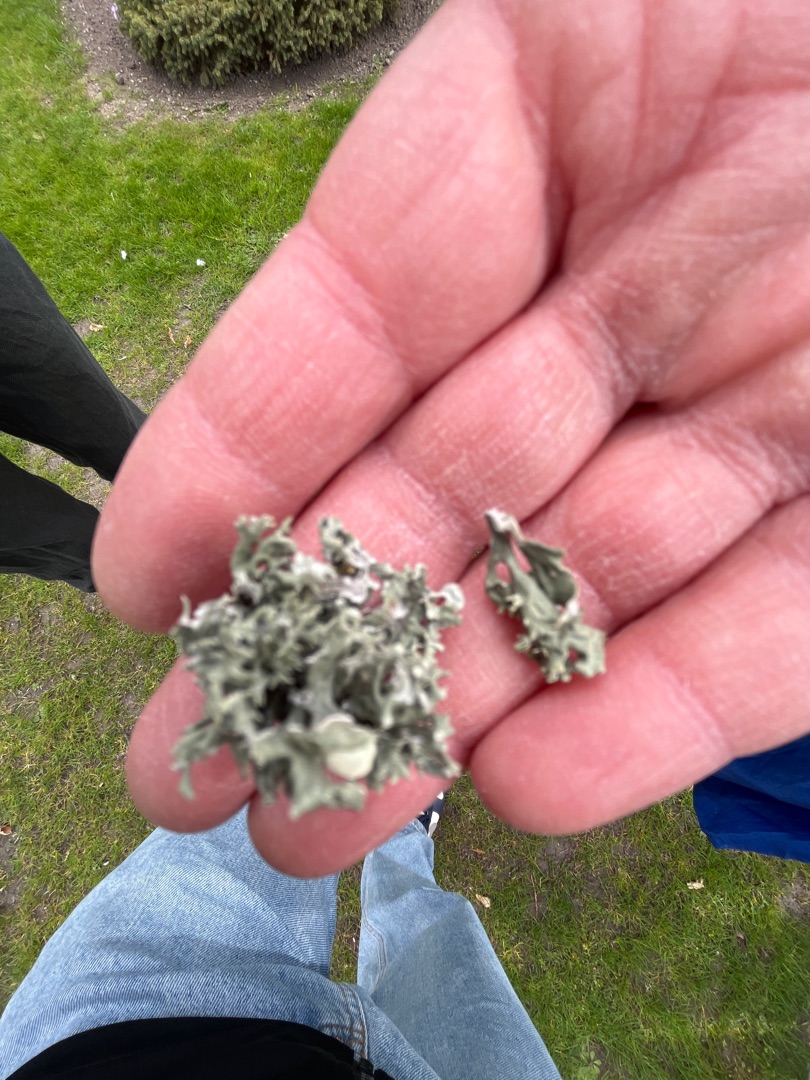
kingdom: Fungi
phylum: Ascomycota
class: Lecanoromycetes
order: Lecanorales
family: Ramalinaceae
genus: Ramalina
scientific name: Ramalina fastigiata
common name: Tue-grenlav
